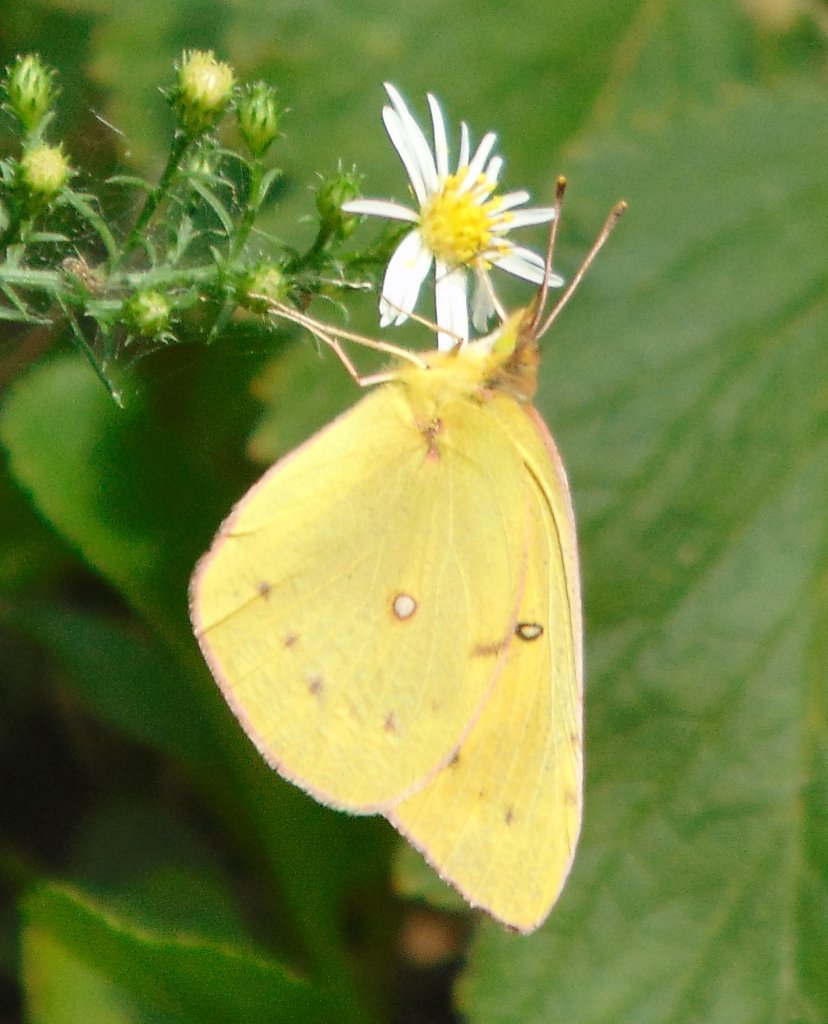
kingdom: Animalia
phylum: Arthropoda
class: Insecta
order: Lepidoptera
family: Pieridae
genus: Colias
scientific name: Colias eurytheme
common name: Orange Sulphur
